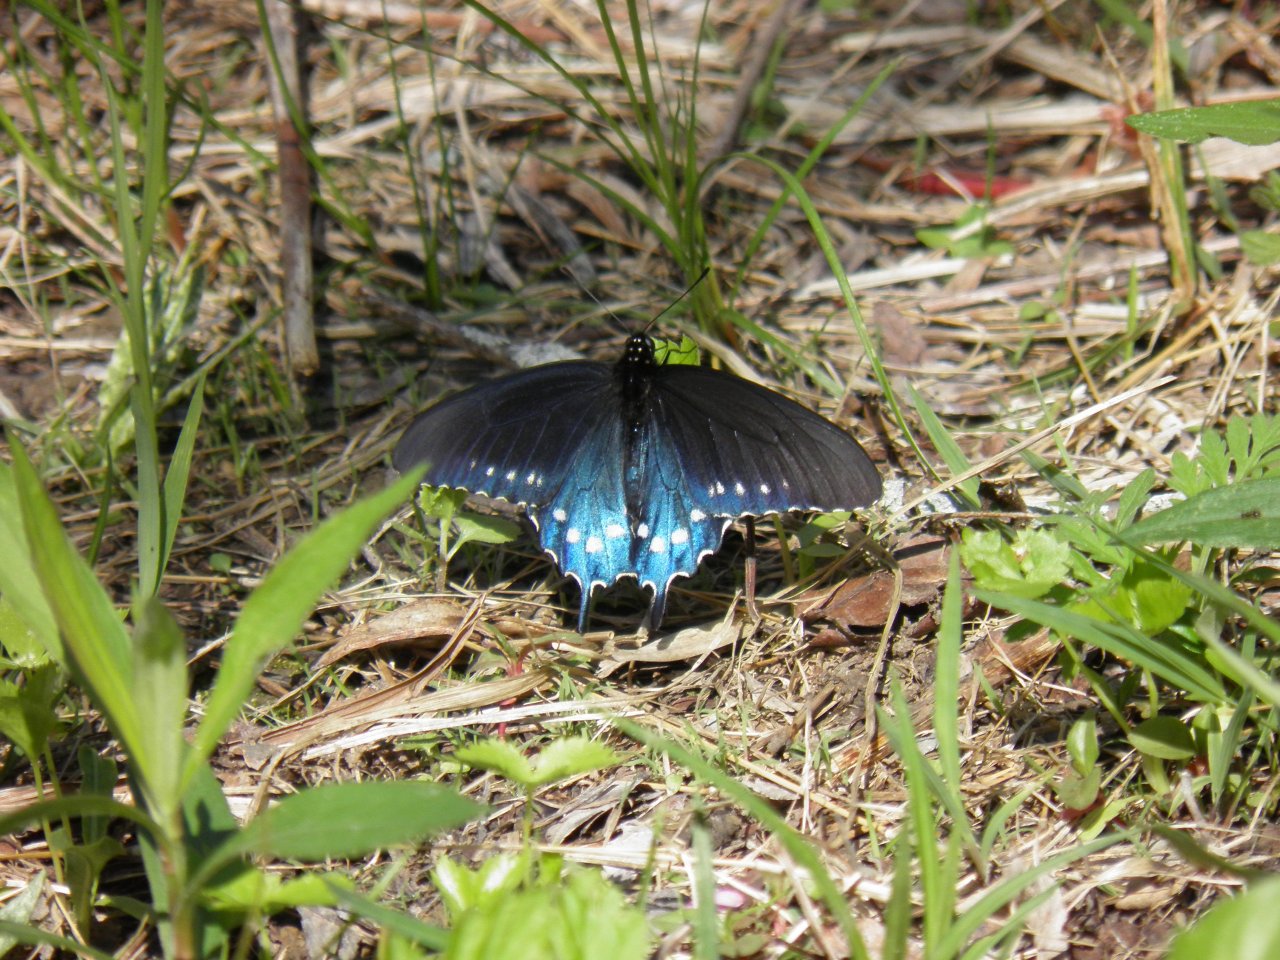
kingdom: Animalia
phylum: Arthropoda
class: Insecta
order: Lepidoptera
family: Papilionidae
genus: Battus
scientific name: Battus philenor
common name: Pipevine Swallowtail
